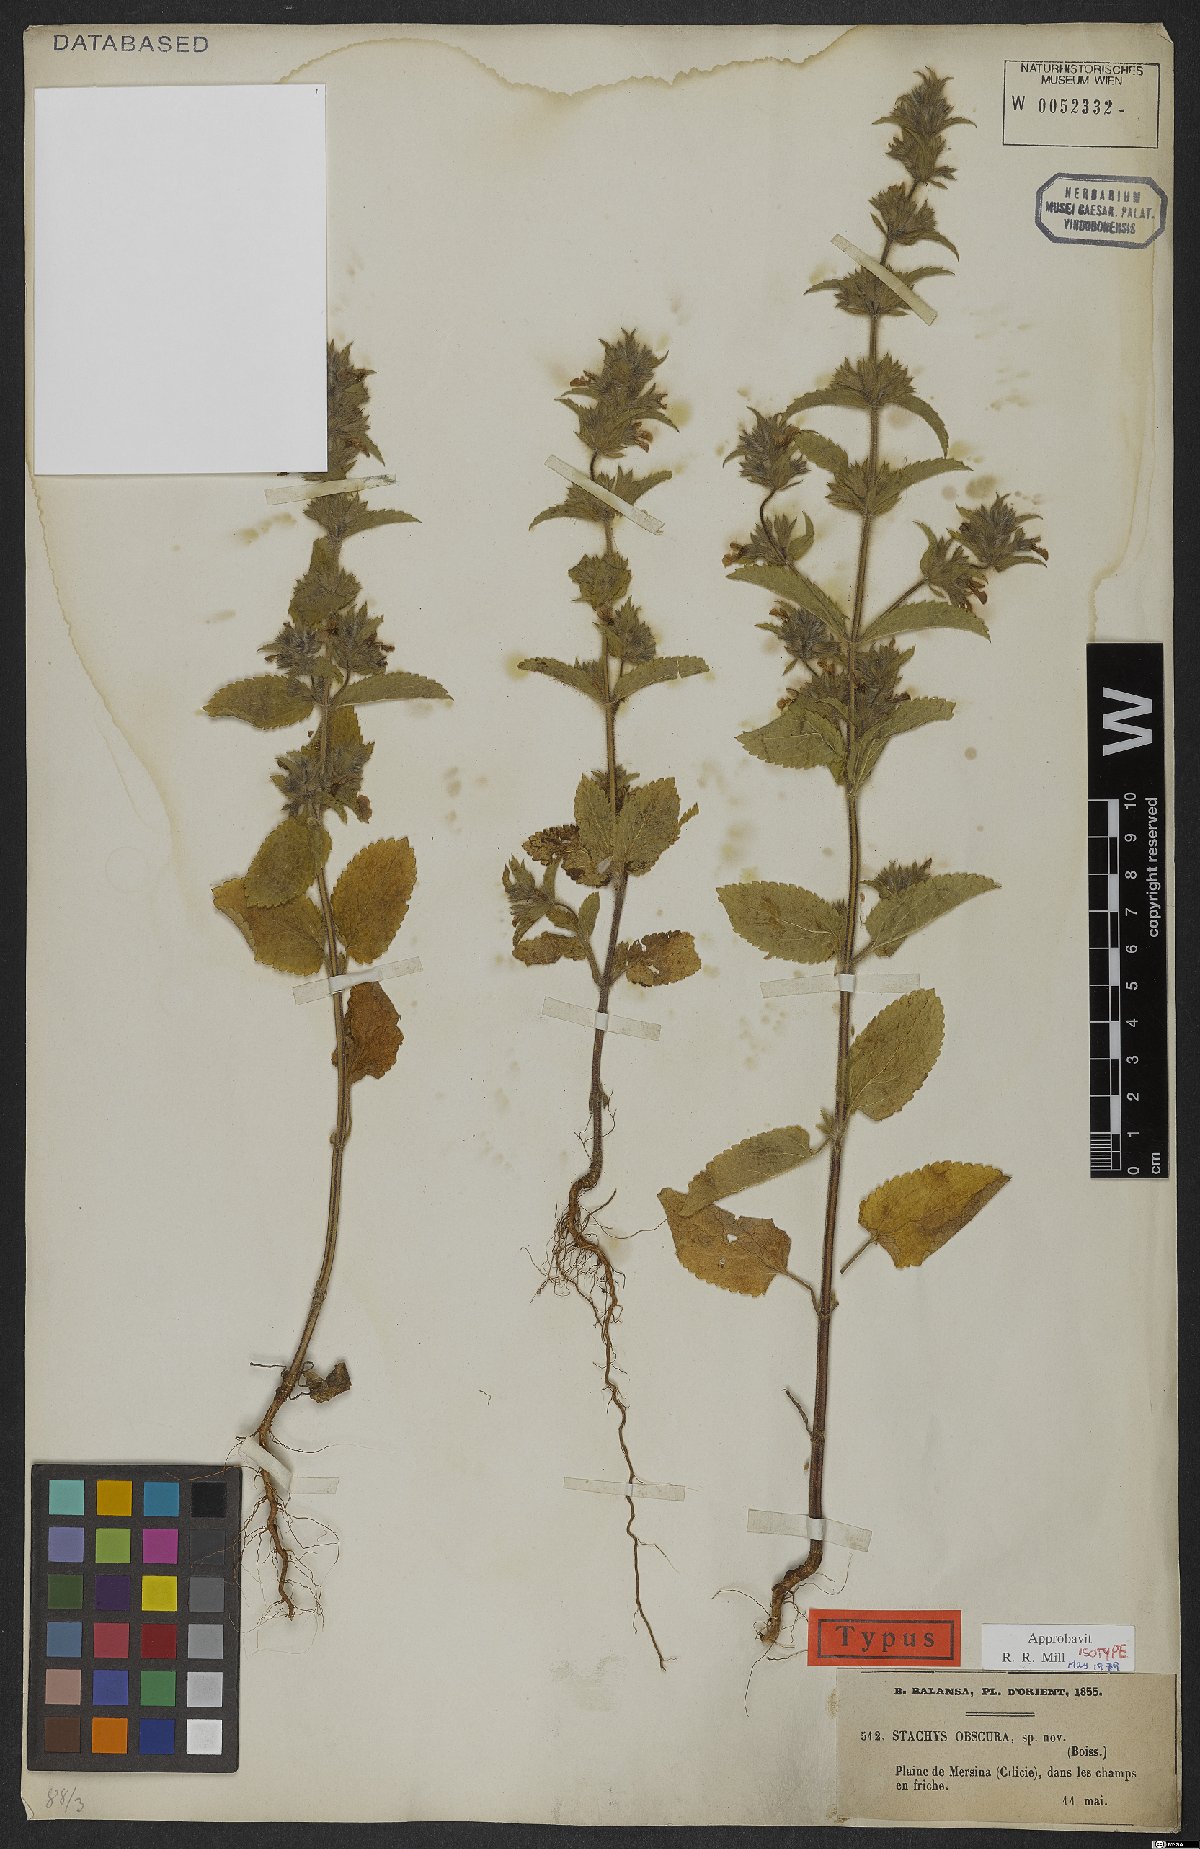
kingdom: Plantae
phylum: Tracheophyta
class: Magnoliopsida
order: Lamiales
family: Lamiaceae
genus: Stachys
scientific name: Stachys obscura
